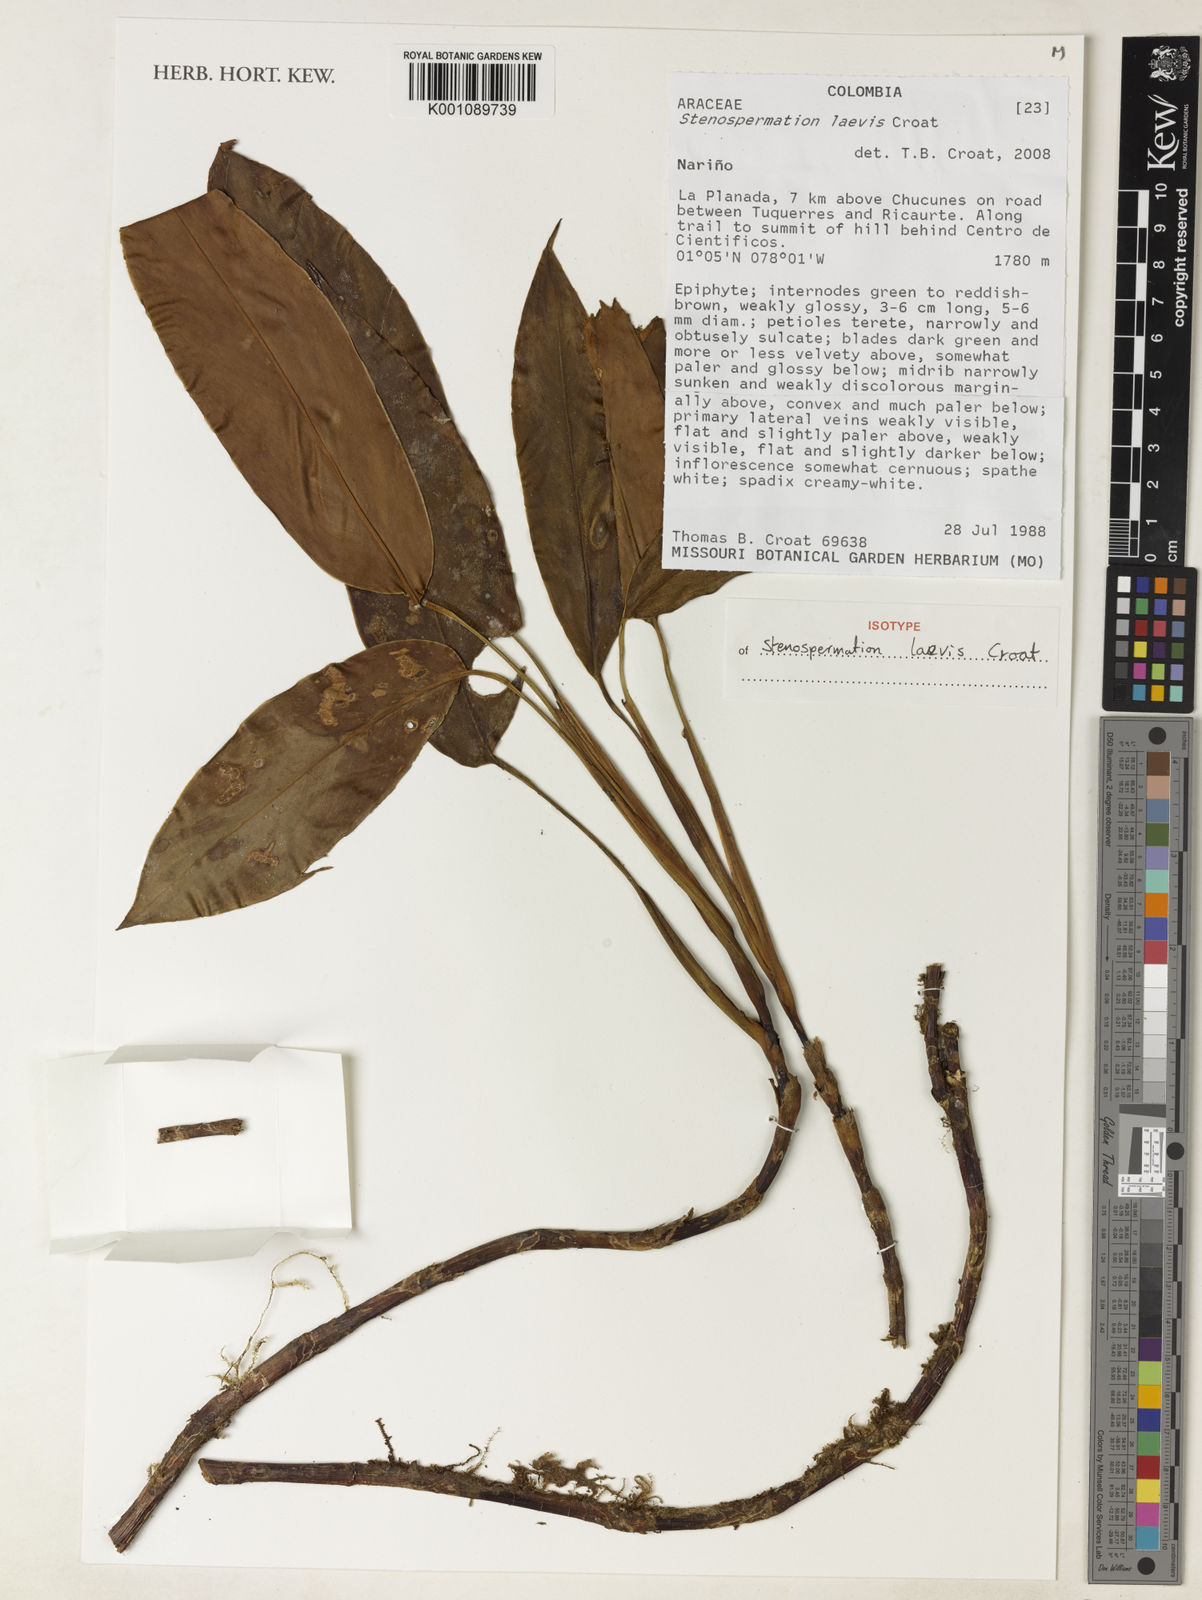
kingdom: Plantae
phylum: Tracheophyta
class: Liliopsida
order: Alismatales
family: Araceae
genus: Stenospermation
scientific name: Stenospermation laevis
